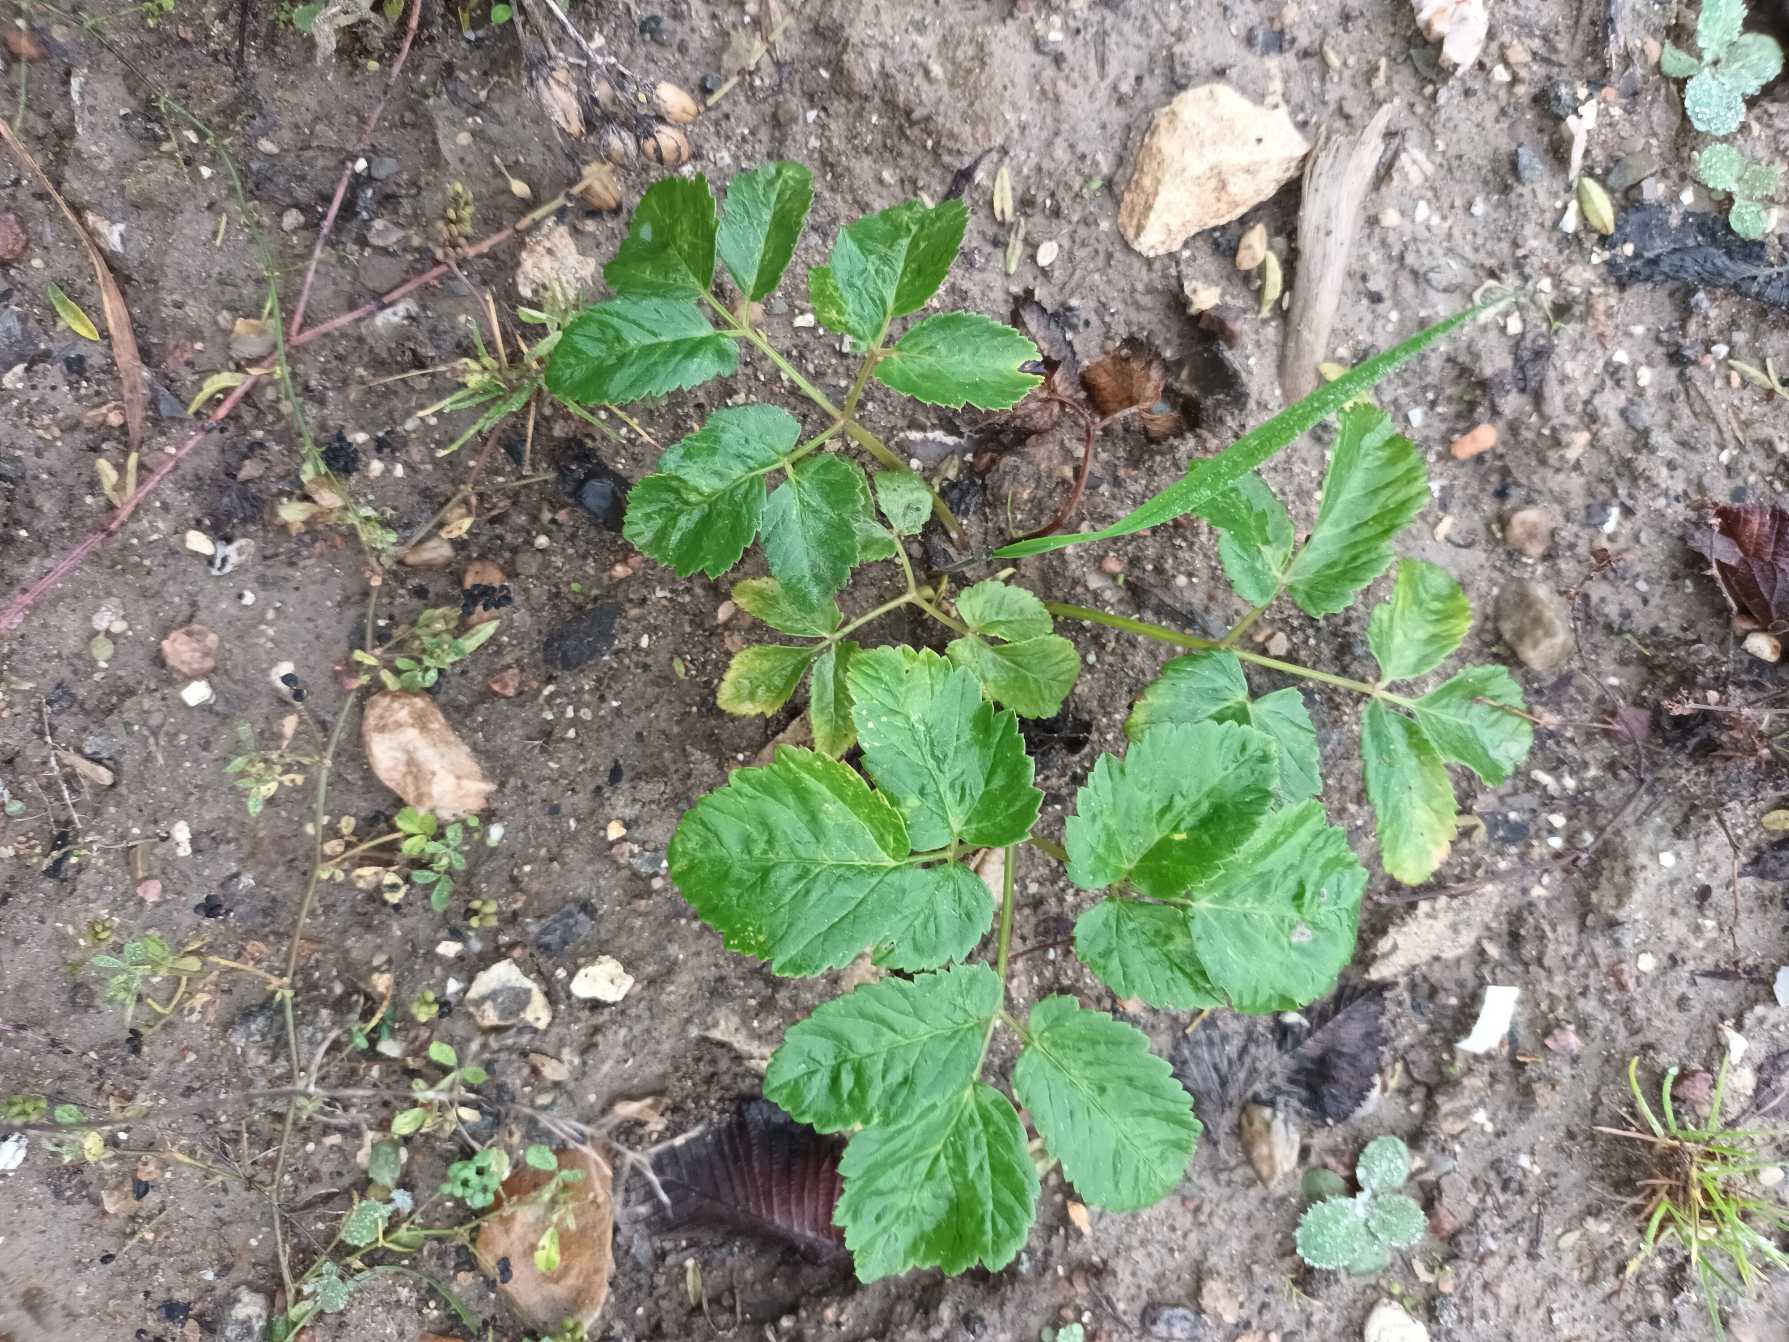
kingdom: Plantae
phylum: Tracheophyta
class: Magnoliopsida
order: Apiales
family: Apiaceae
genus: Aegopodium
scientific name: Aegopodium podagraria
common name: Skvalderkål
